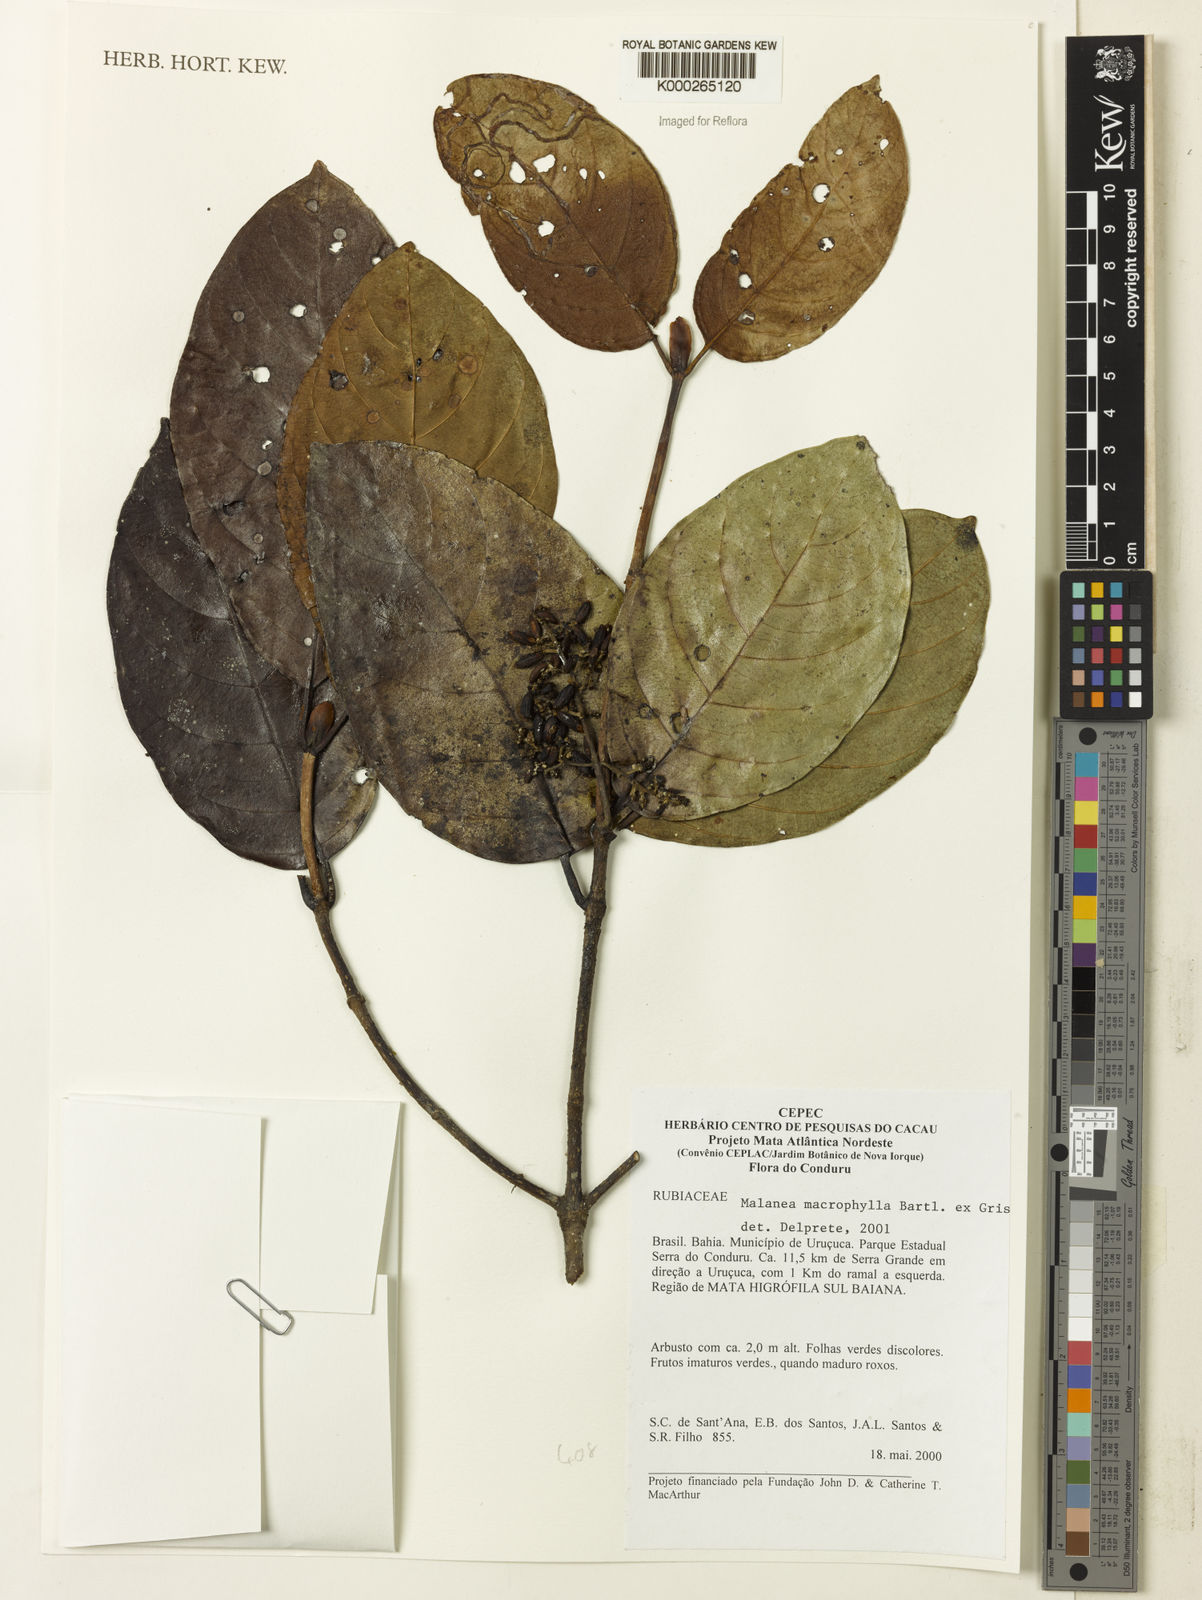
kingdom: Plantae
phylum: Tracheophyta
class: Magnoliopsida
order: Gentianales
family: Rubiaceae
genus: Malanea
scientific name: Malanea
